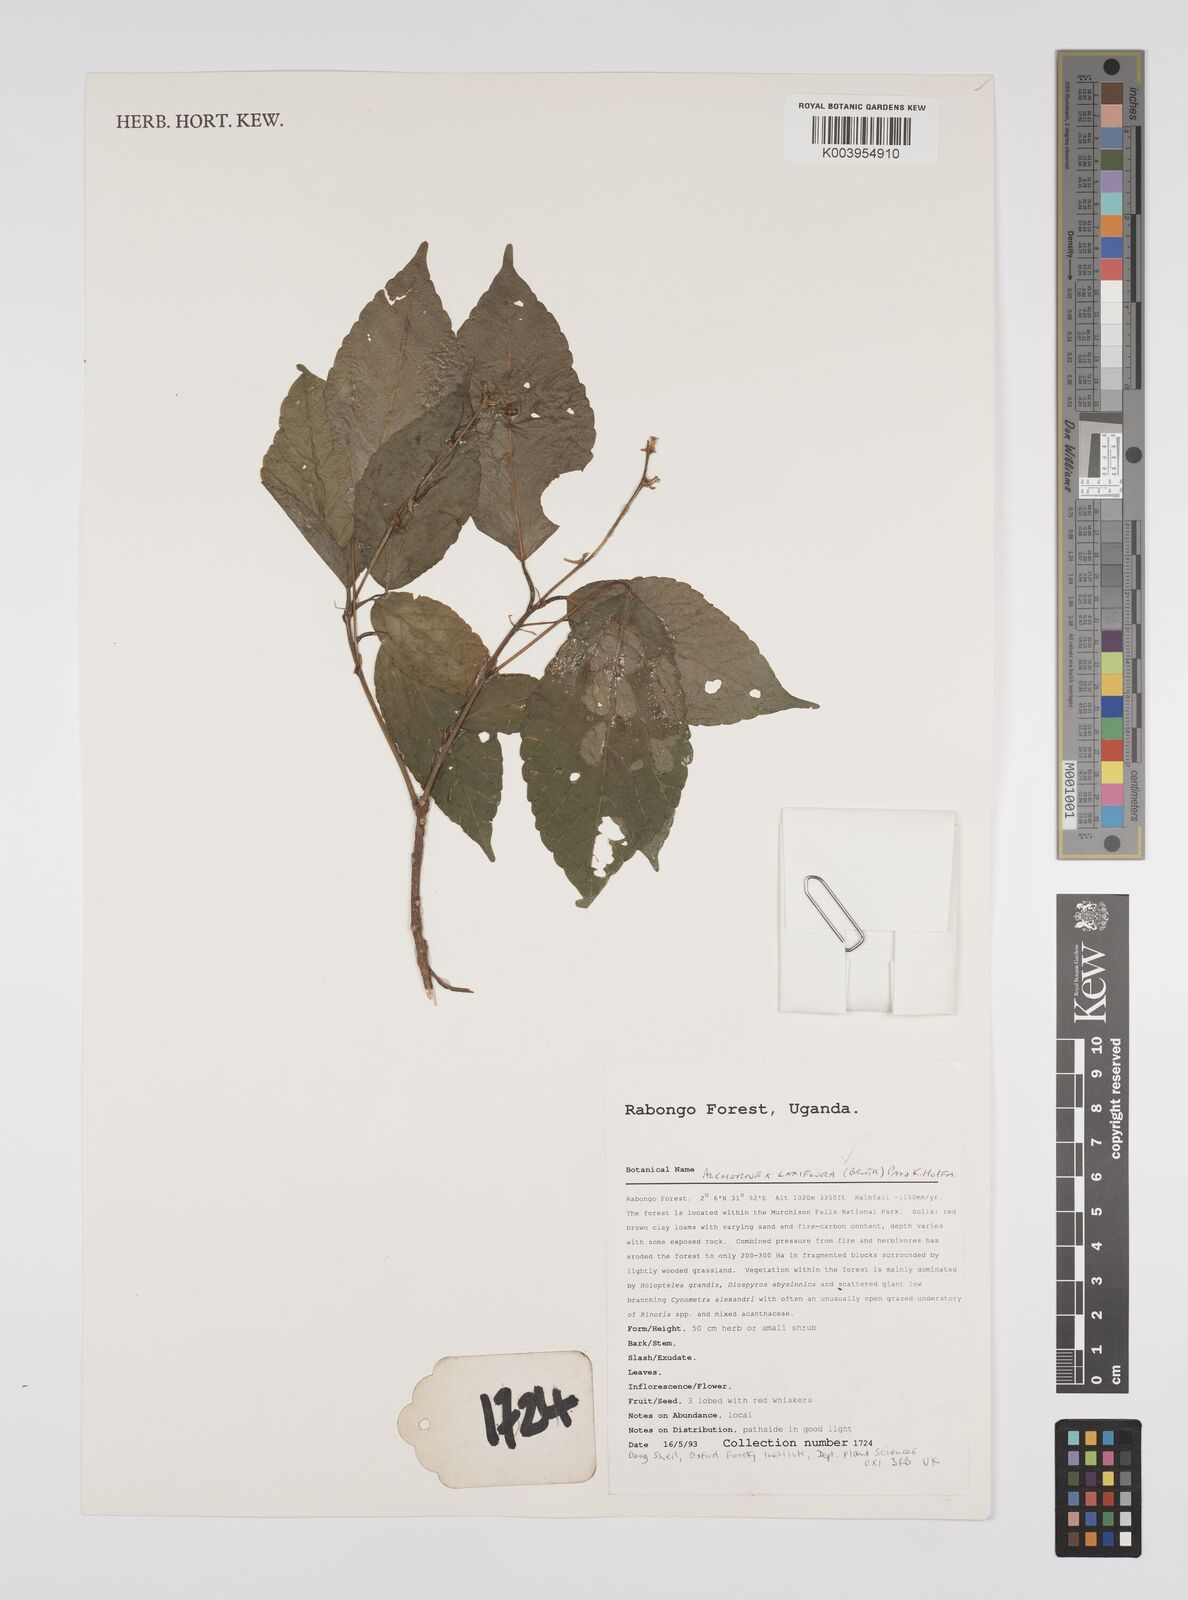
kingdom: Plantae
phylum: Tracheophyta
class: Magnoliopsida
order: Malpighiales
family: Euphorbiaceae
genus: Alchornea
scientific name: Alchornea laxiflora
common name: Lowveld bead-string
